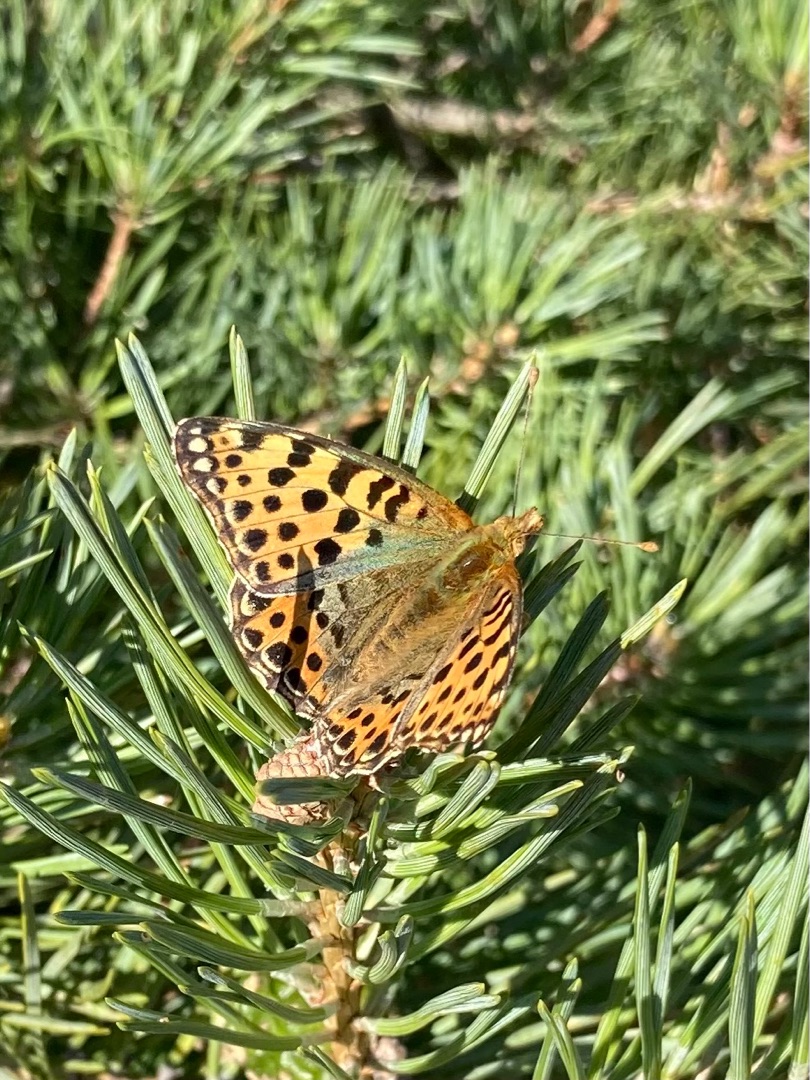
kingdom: Animalia
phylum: Arthropoda
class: Insecta
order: Lepidoptera
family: Nymphalidae
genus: Issoria
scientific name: Issoria lathonia
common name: Storplettet perlemorsommerfugl
